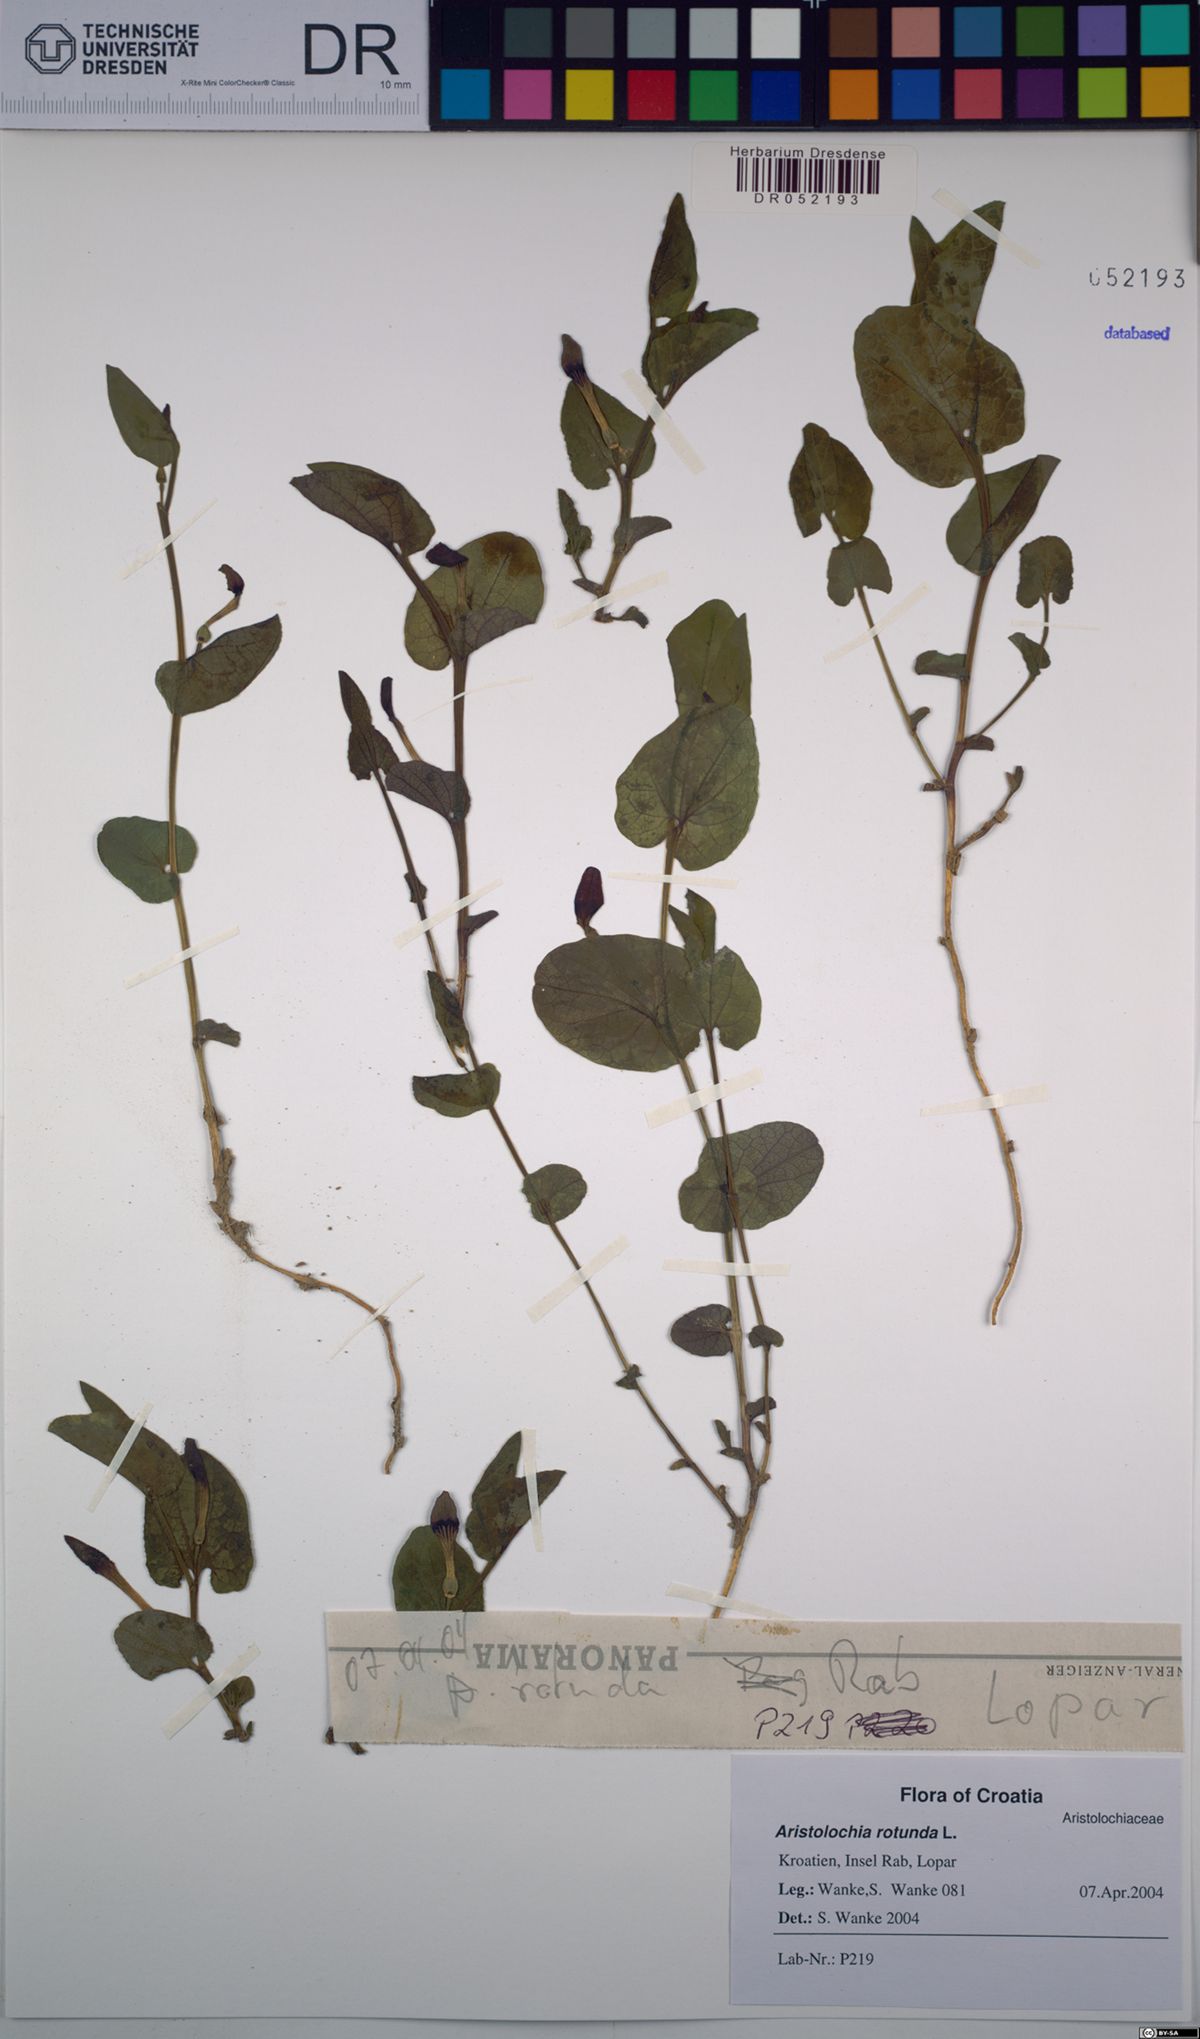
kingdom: Plantae
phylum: Tracheophyta
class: Magnoliopsida
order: Piperales
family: Aristolochiaceae
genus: Aristolochia
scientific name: Aristolochia rotunda
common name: Smearwort
